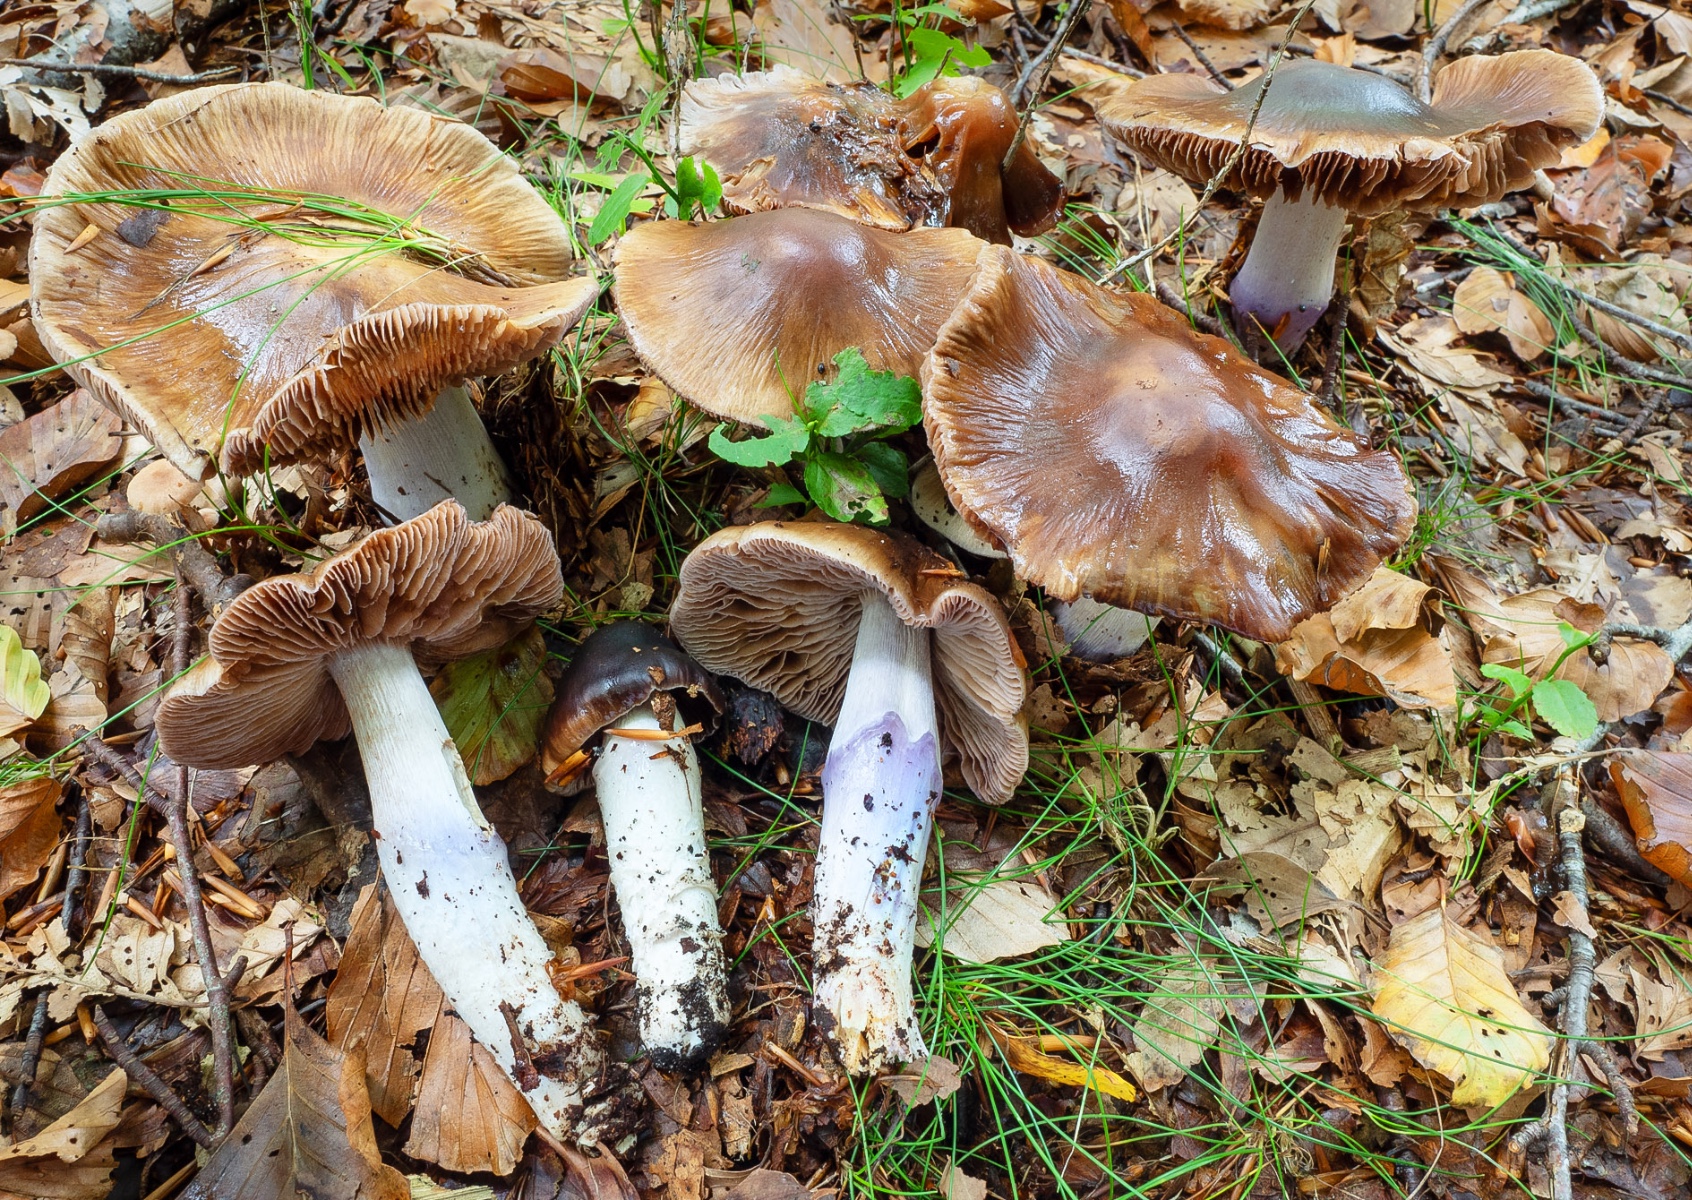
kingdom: Fungi
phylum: Basidiomycota
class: Agaricomycetes
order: Agaricales
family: Cortinariaceae
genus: Cortinarius
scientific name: Cortinarius elatior
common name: høj slørhat
